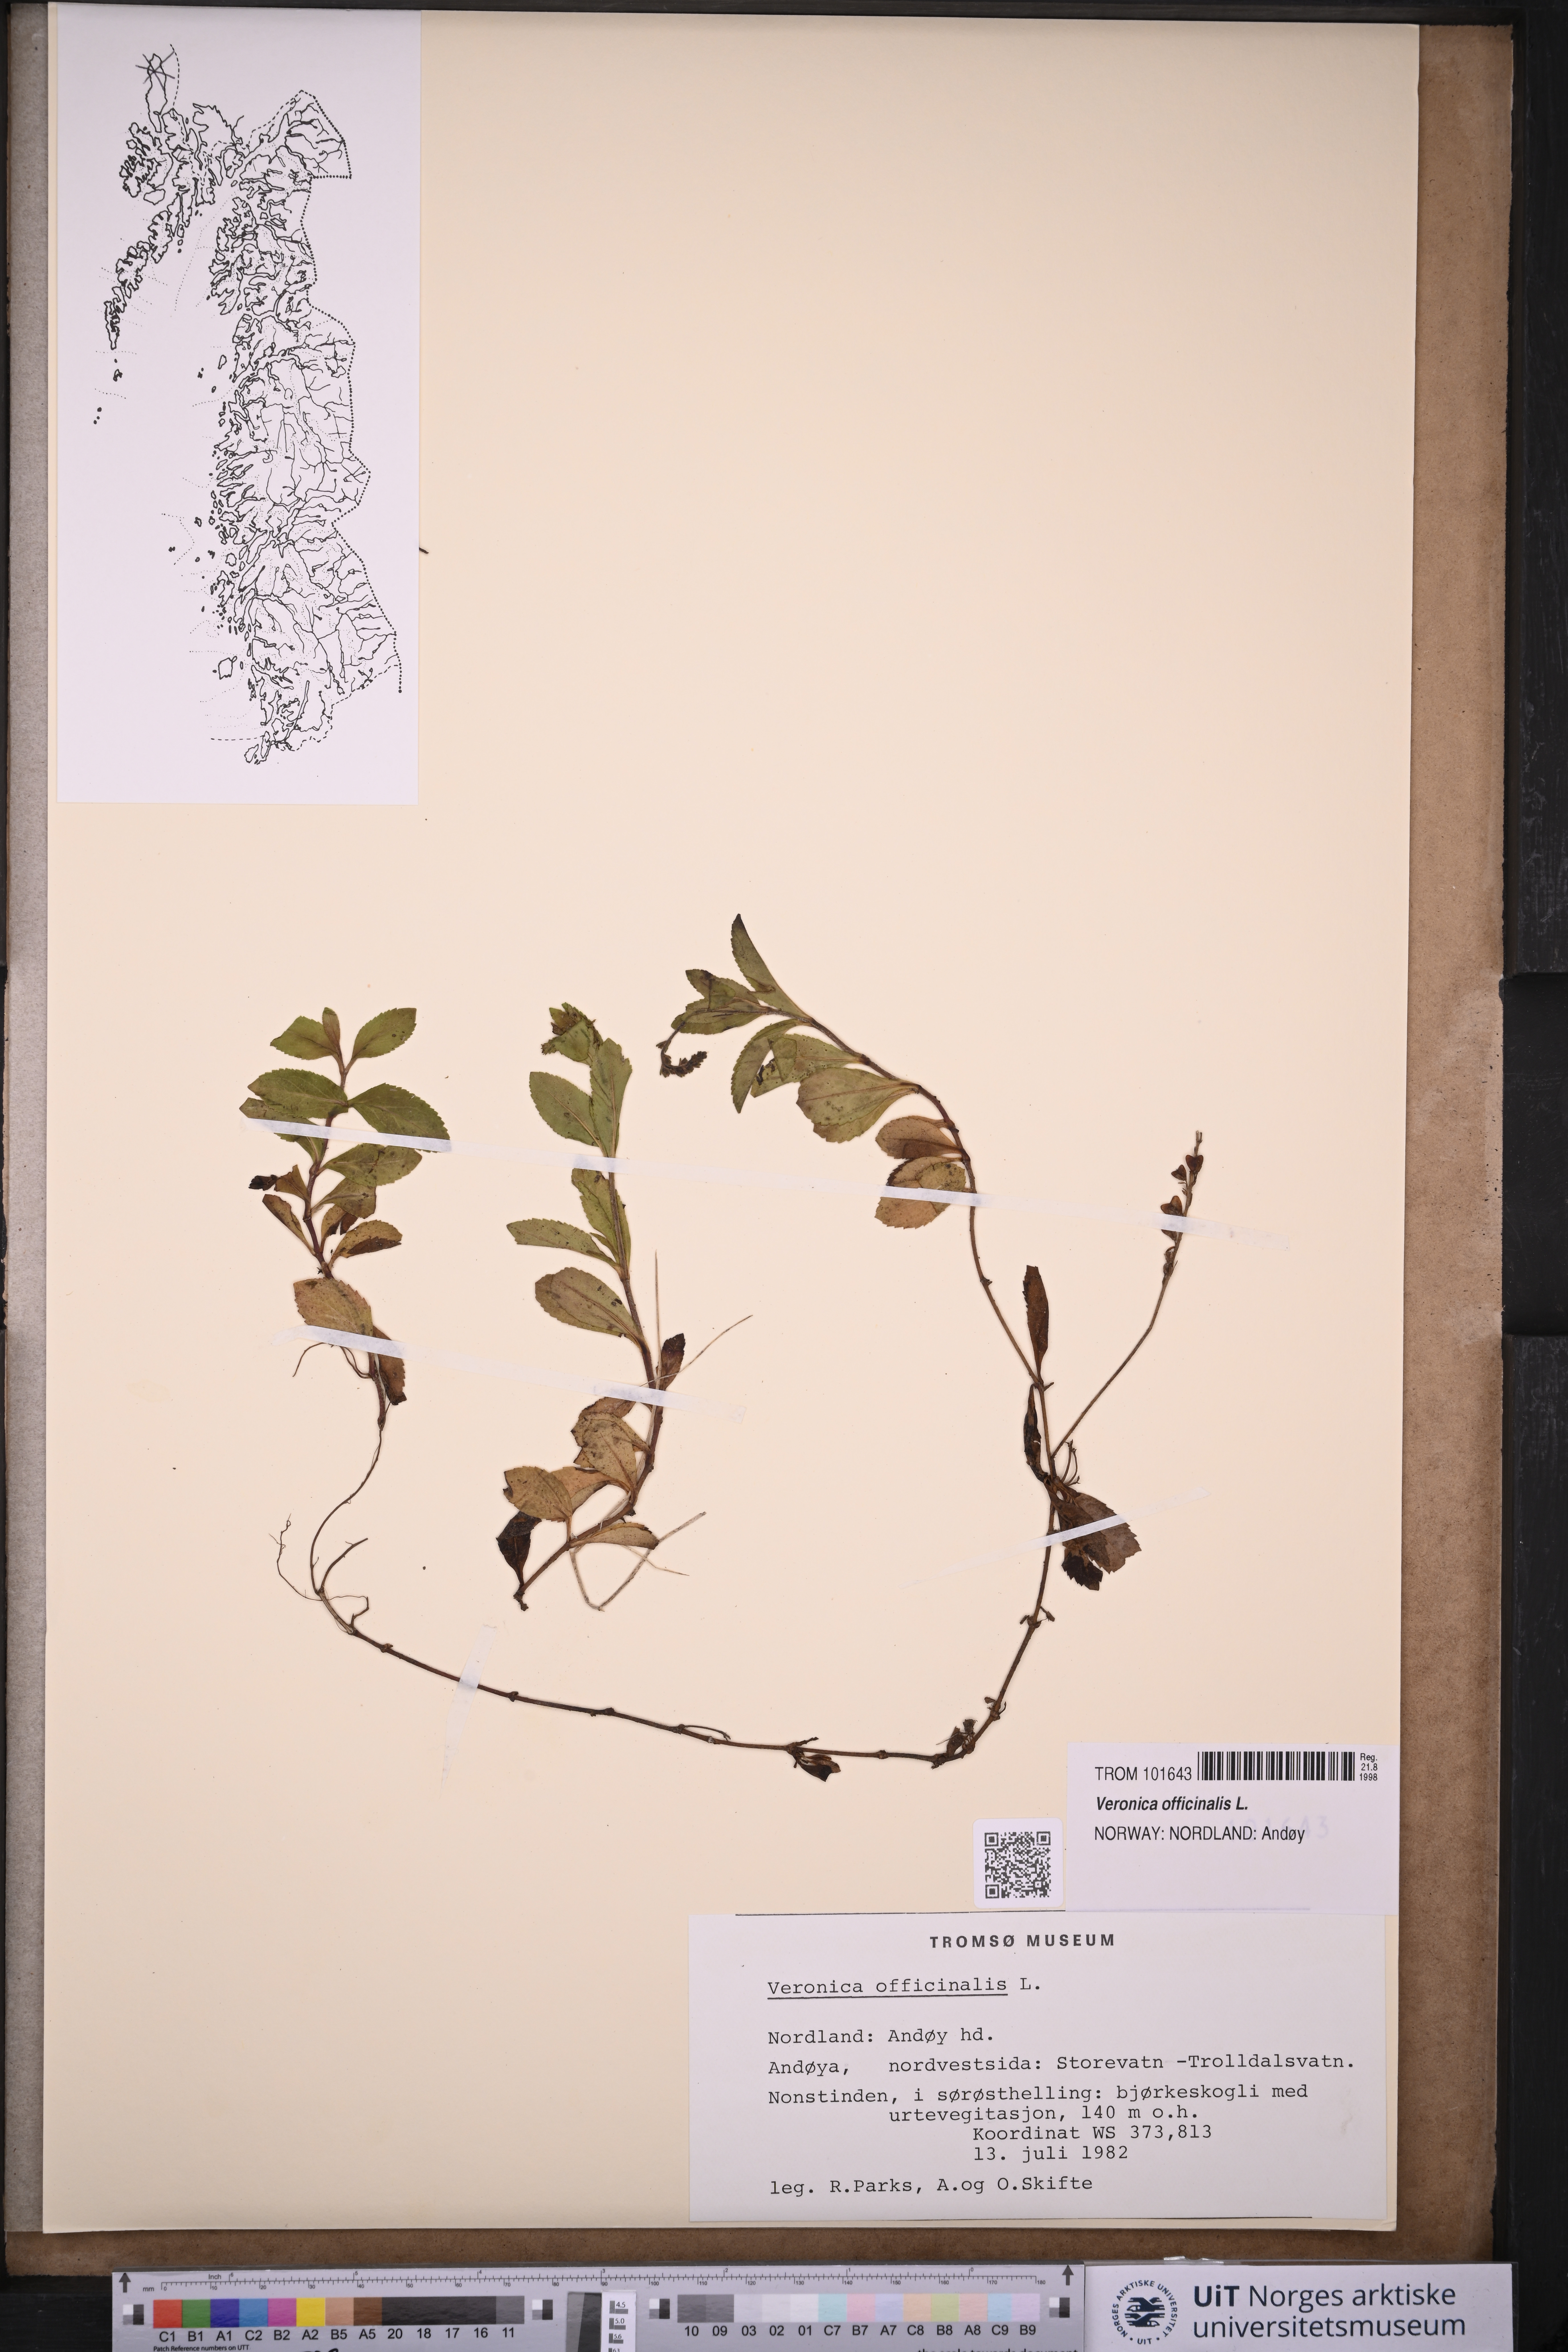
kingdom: Plantae
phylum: Tracheophyta
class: Magnoliopsida
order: Lamiales
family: Plantaginaceae
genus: Veronica
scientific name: Veronica officinalis
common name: Common speedwell
